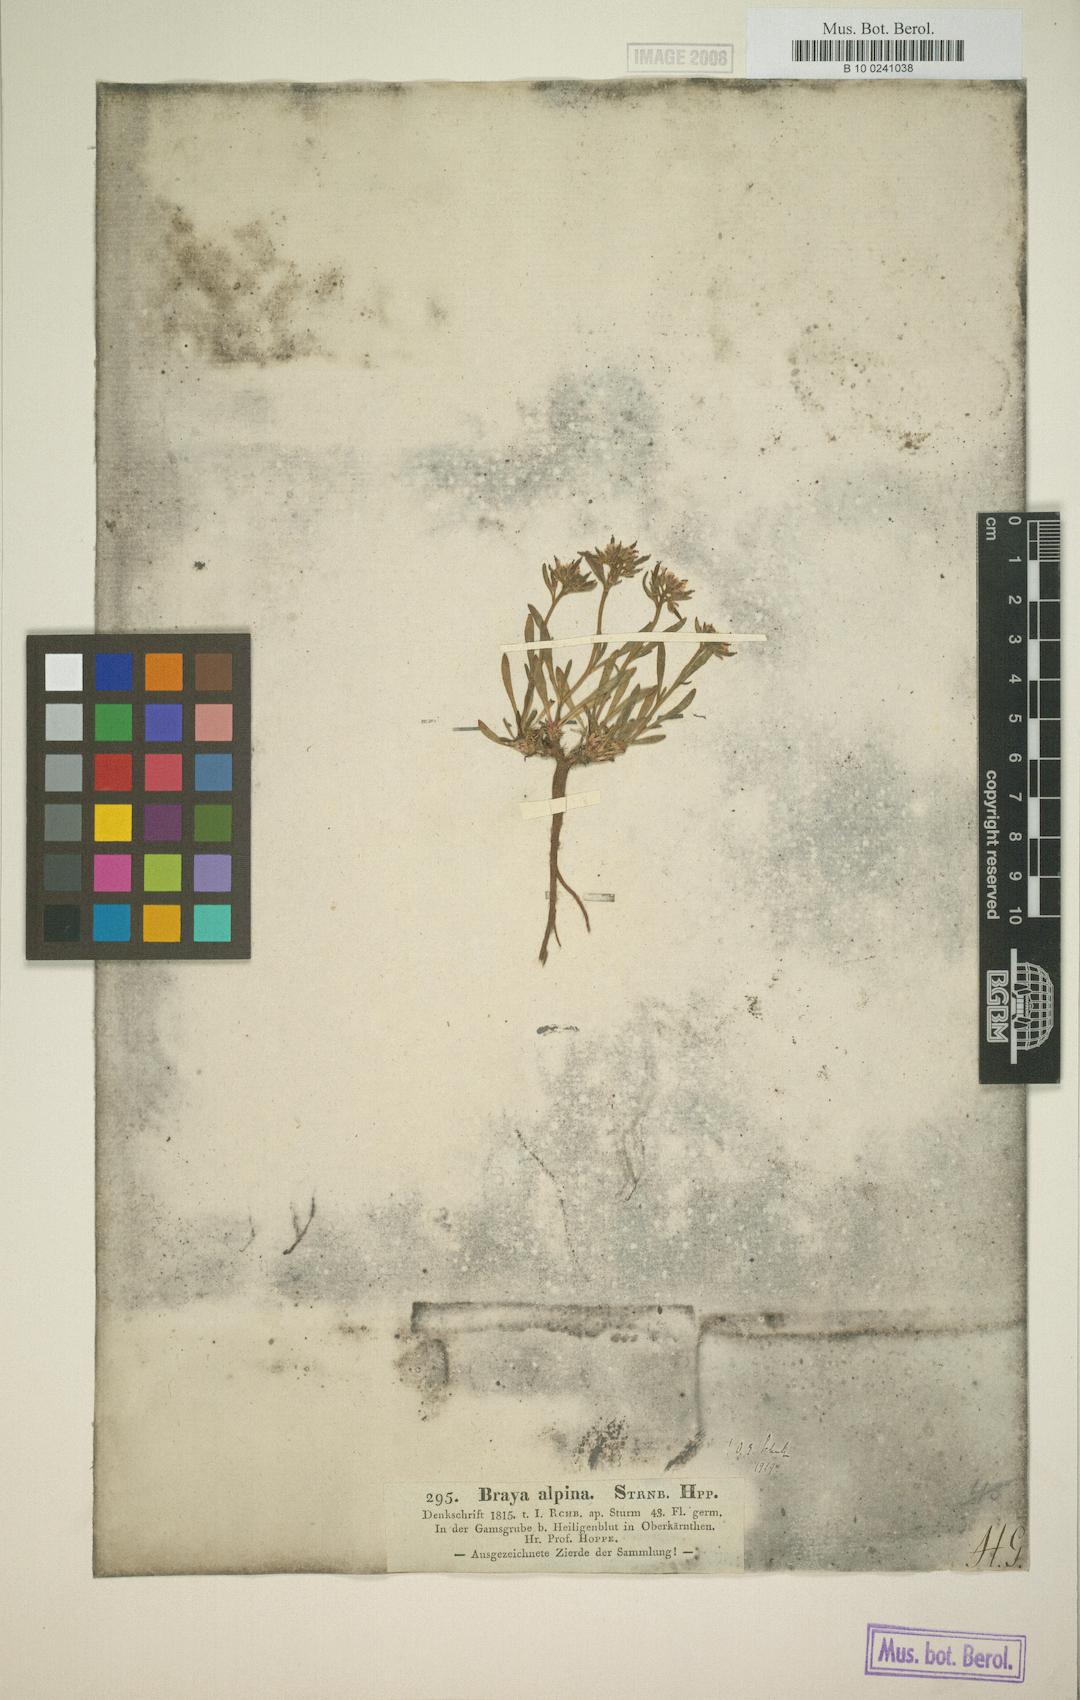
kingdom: Plantae
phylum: Tracheophyta
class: Magnoliopsida
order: Brassicales
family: Brassicaceae
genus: Braya
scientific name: Braya alpina
